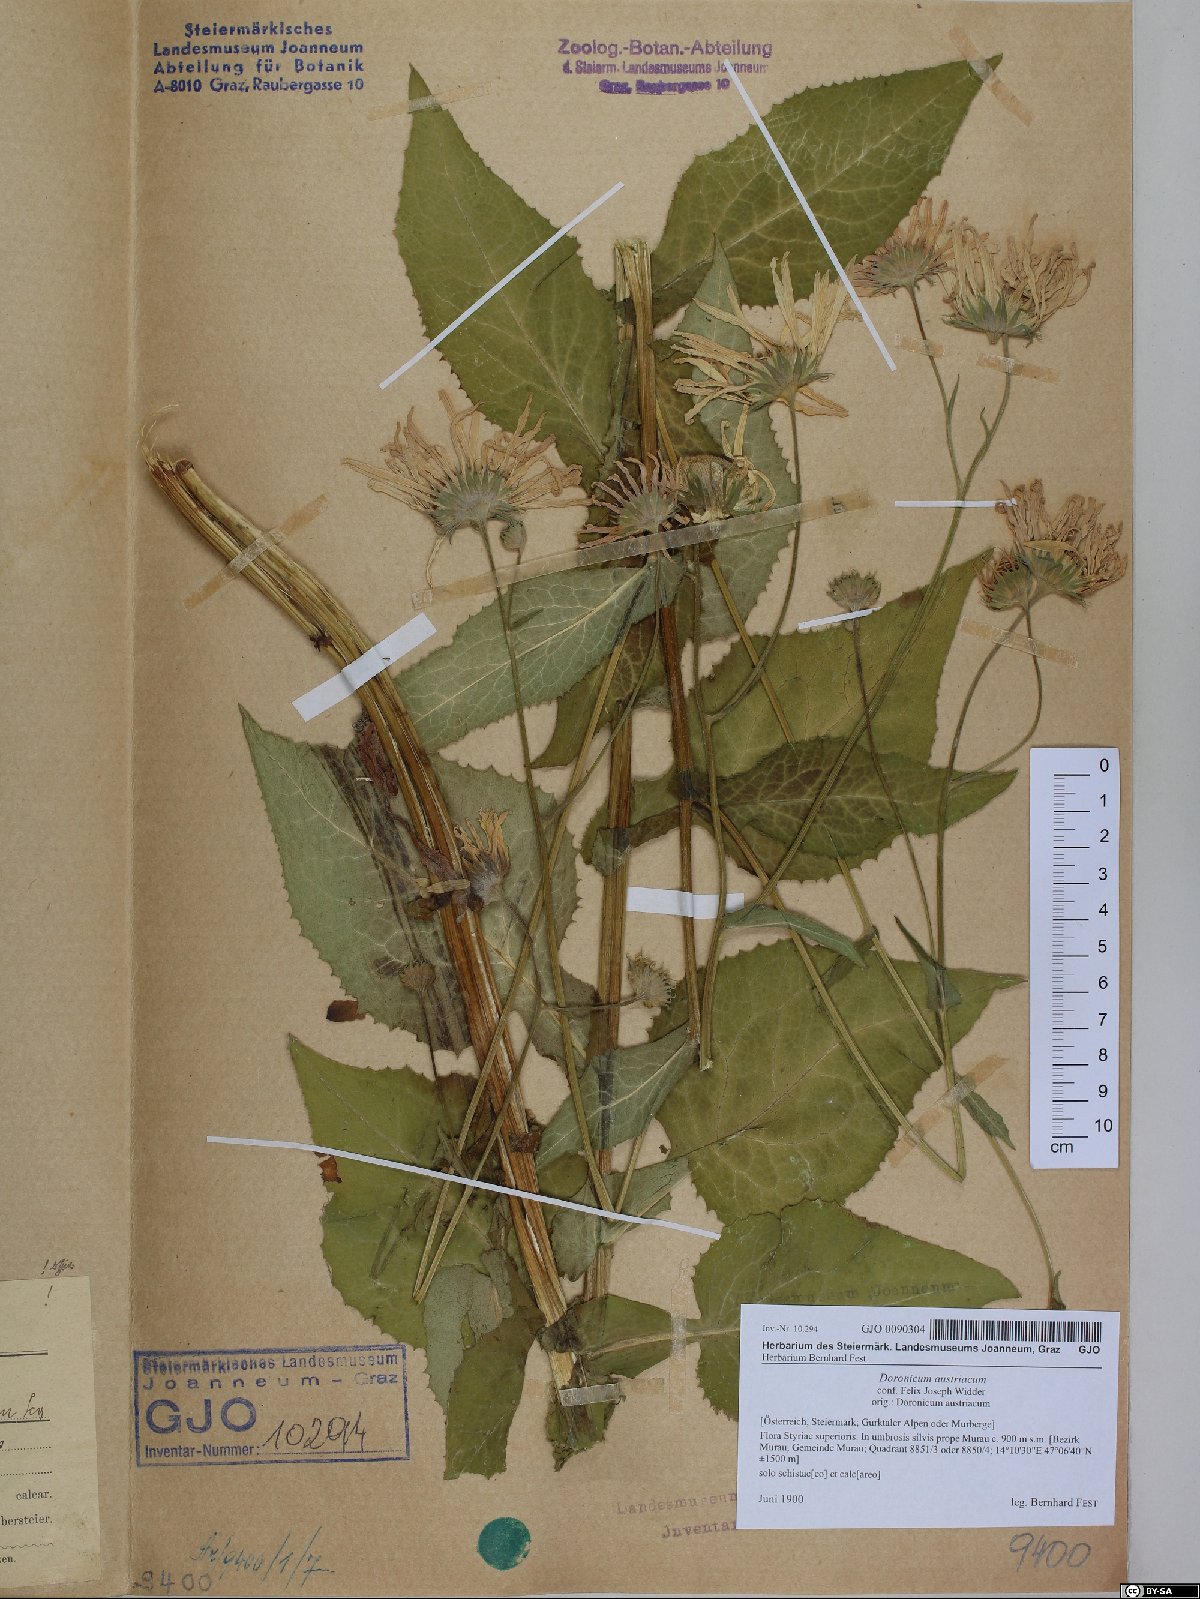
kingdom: Plantae
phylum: Tracheophyta
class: Magnoliopsida
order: Asterales
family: Asteraceae
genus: Doronicum
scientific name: Doronicum austriacum
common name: Austrian leopard's-bane
